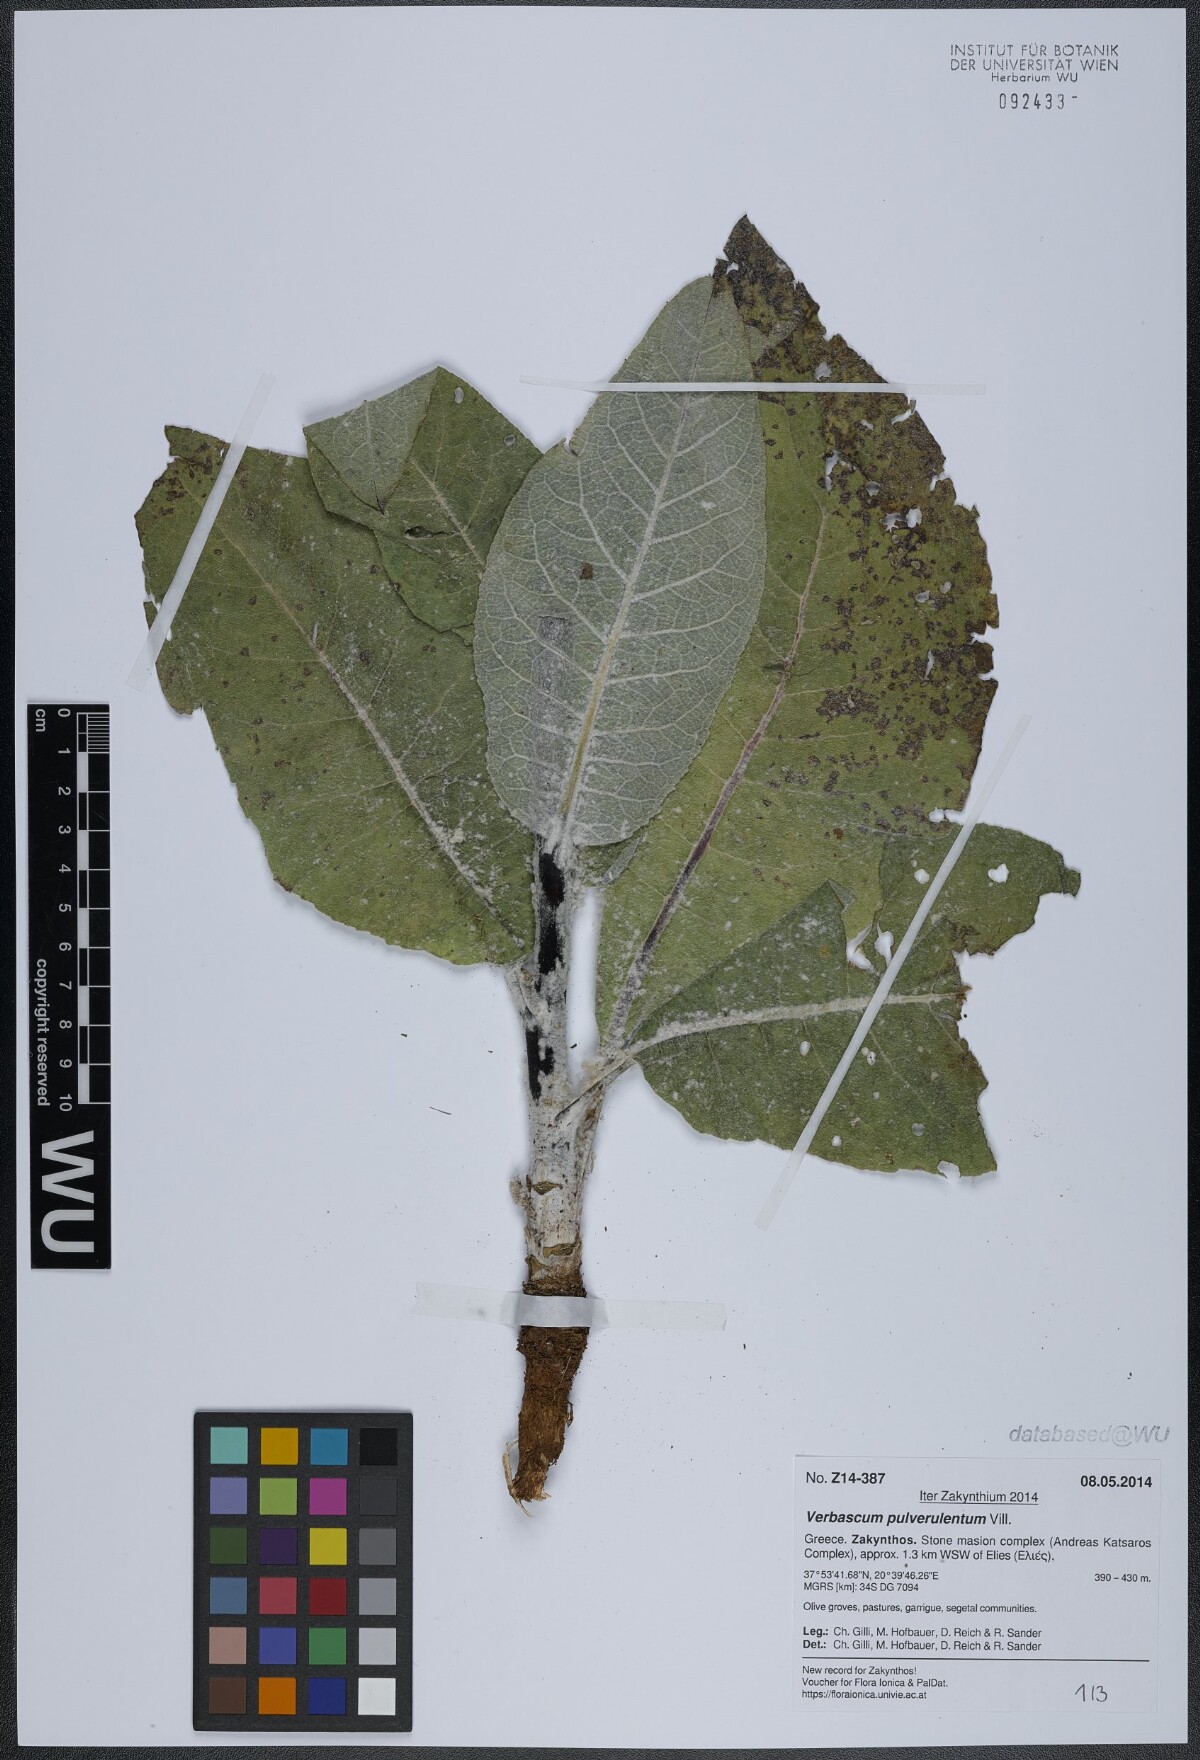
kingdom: Plantae
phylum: Tracheophyta
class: Magnoliopsida
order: Lamiales
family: Scrophulariaceae
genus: Verbascum
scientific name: Verbascum pulverulentum
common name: Broad-leaf mullein
